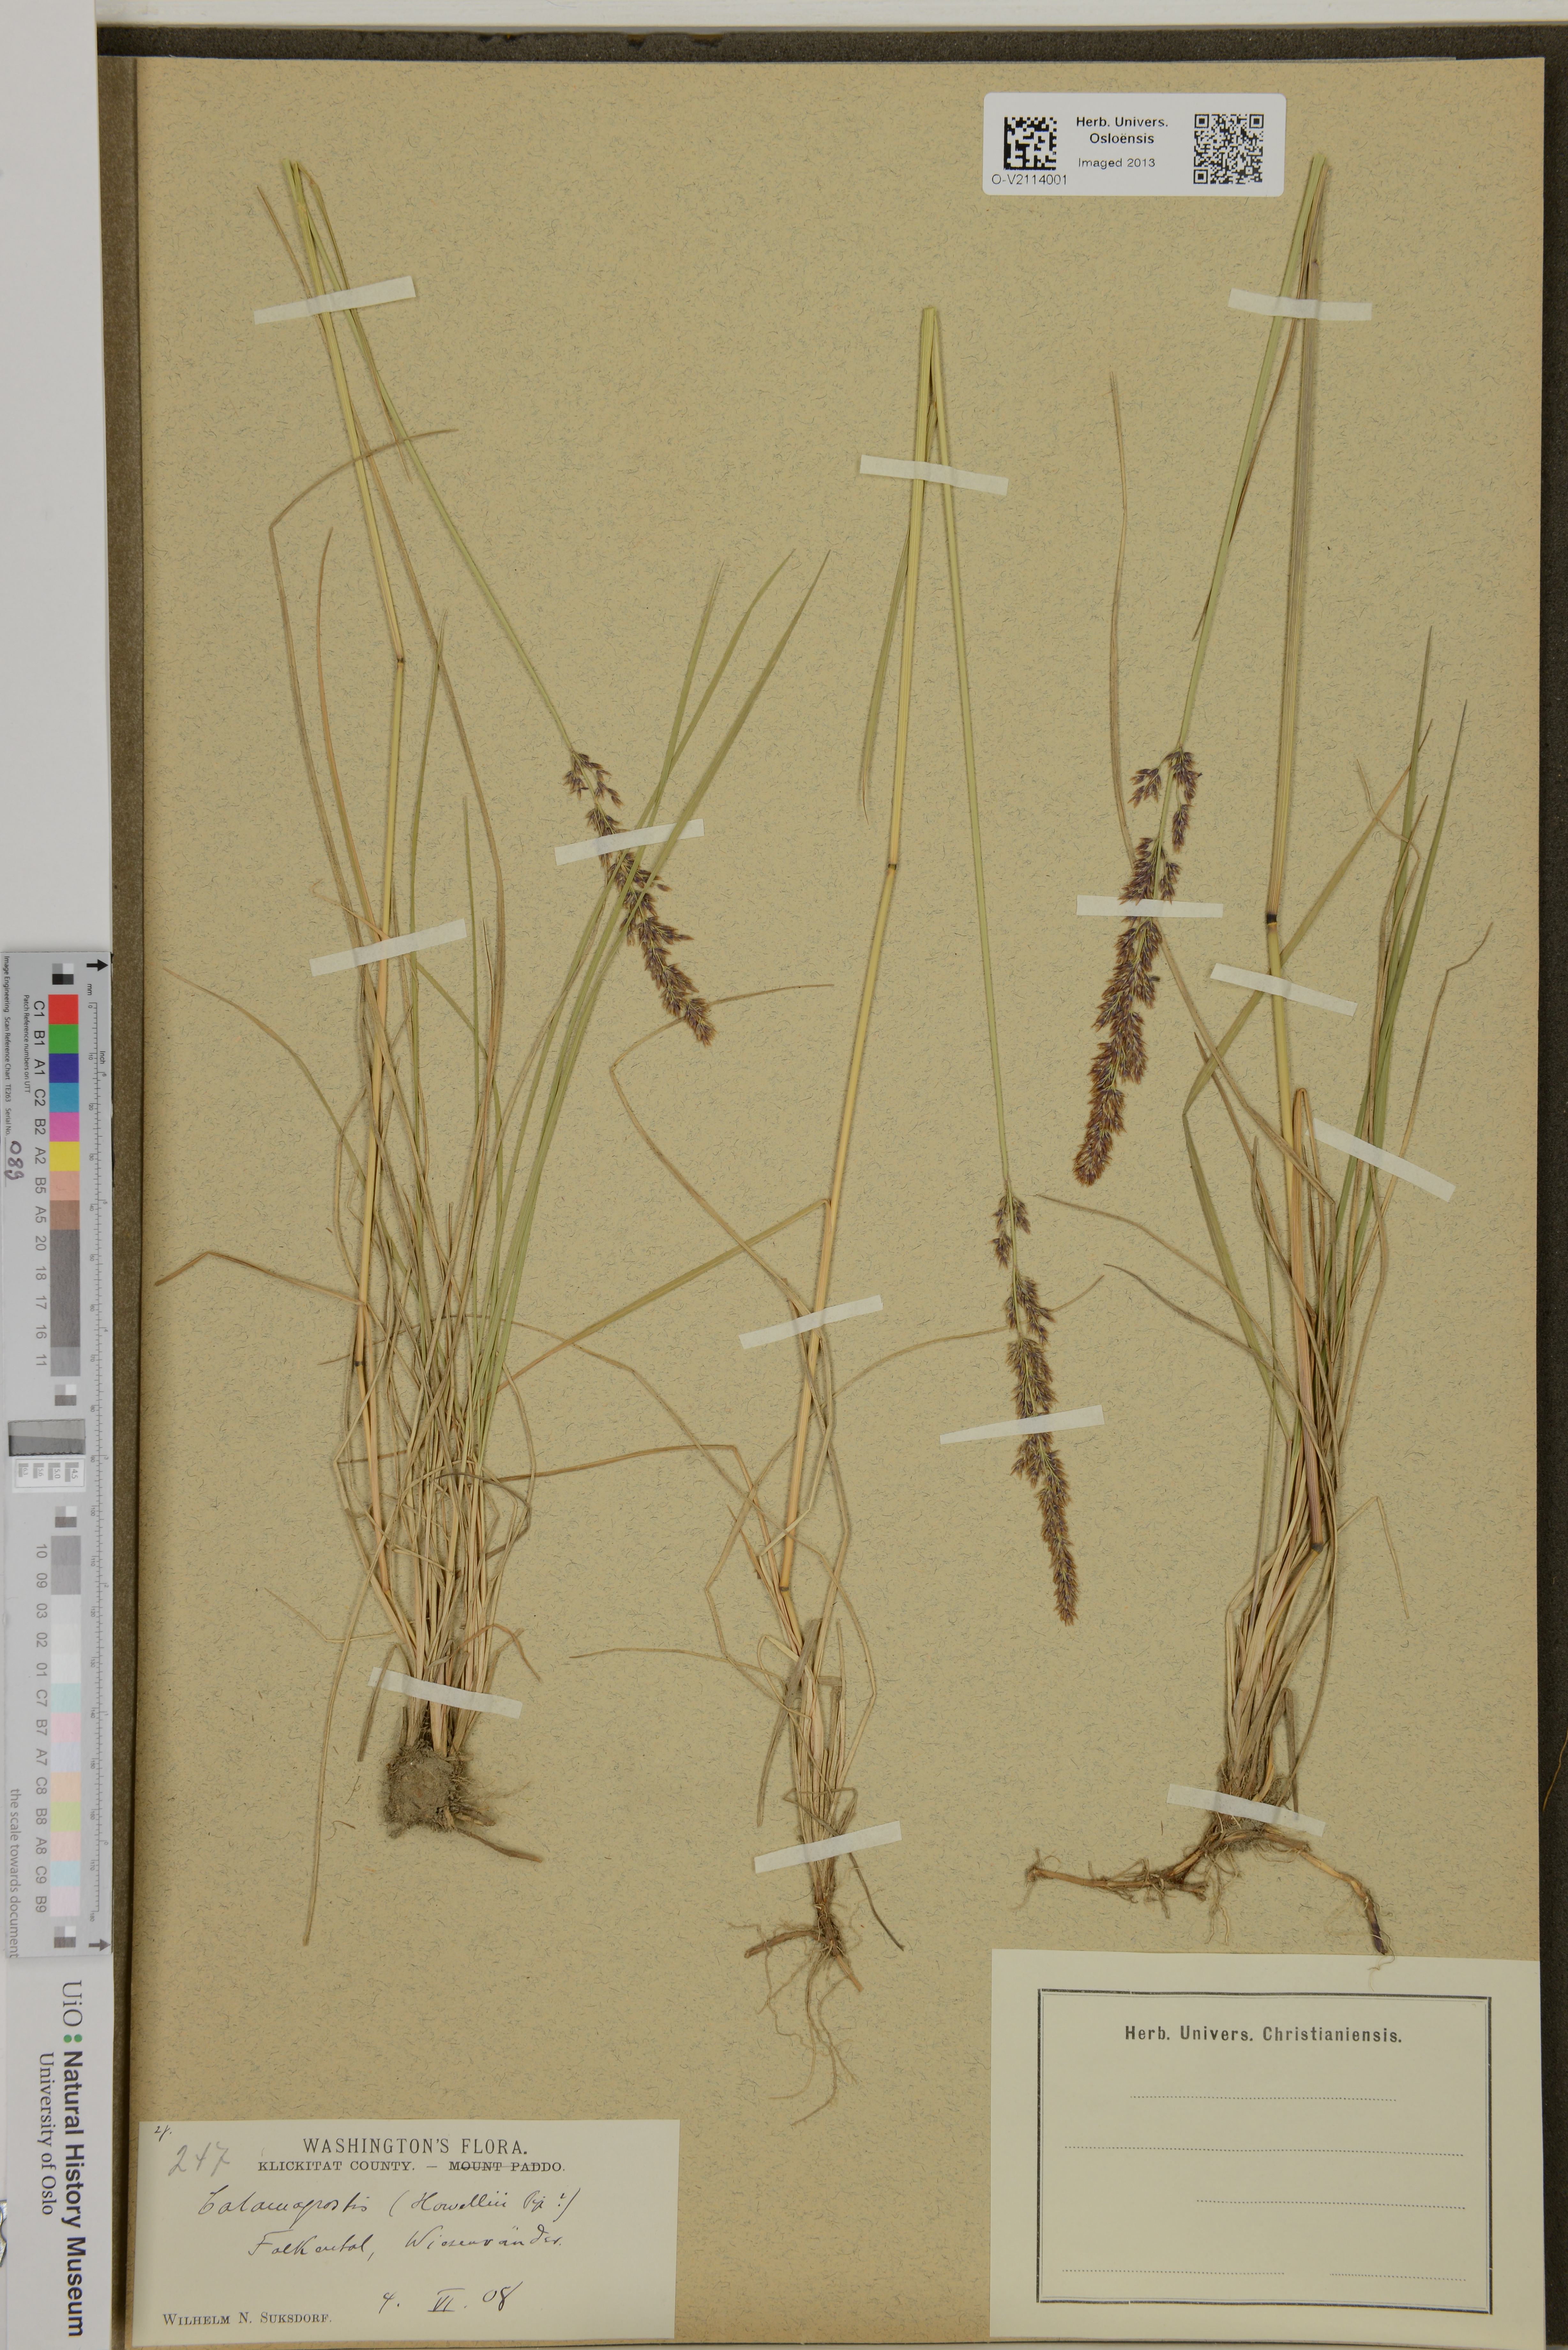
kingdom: Plantae
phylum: Tracheophyta
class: Liliopsida
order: Poales
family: Poaceae
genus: Calamagrostis
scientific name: Calamagrostis howellii
